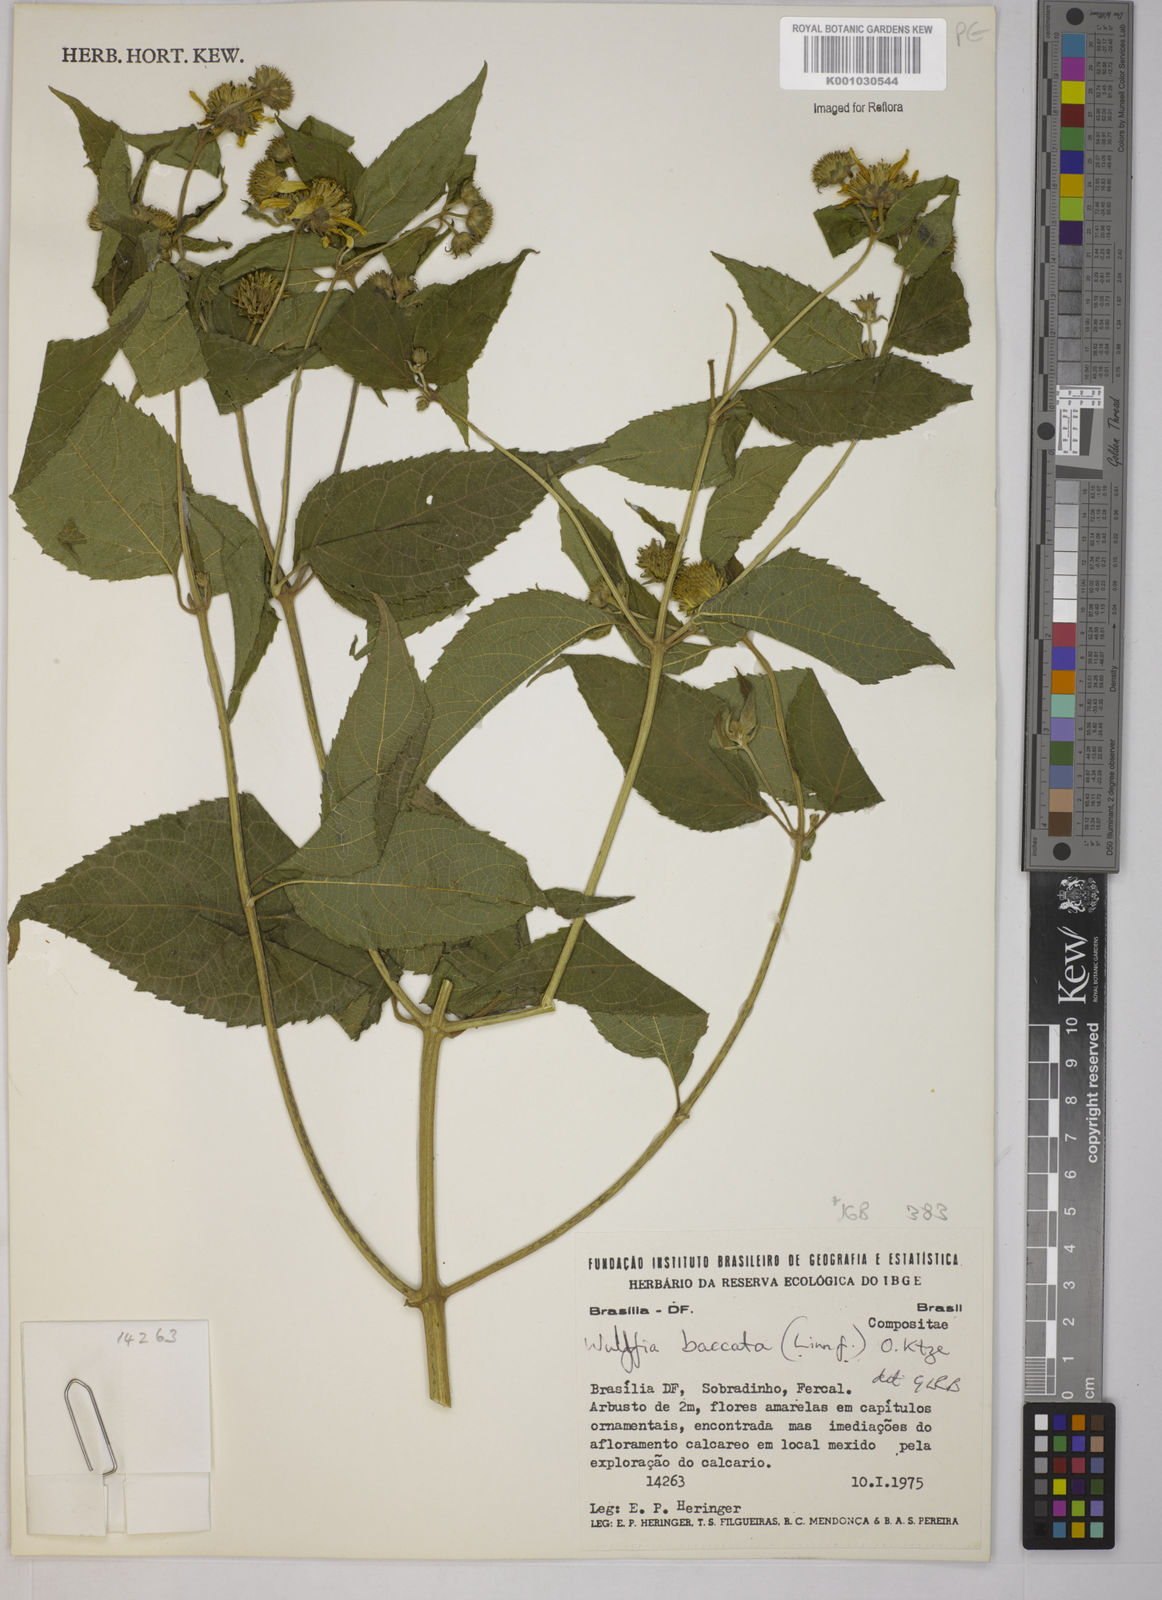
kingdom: Plantae
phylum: Tracheophyta
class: Magnoliopsida
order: Asterales
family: Asteraceae
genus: Tilesia
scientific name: Tilesia baccata
